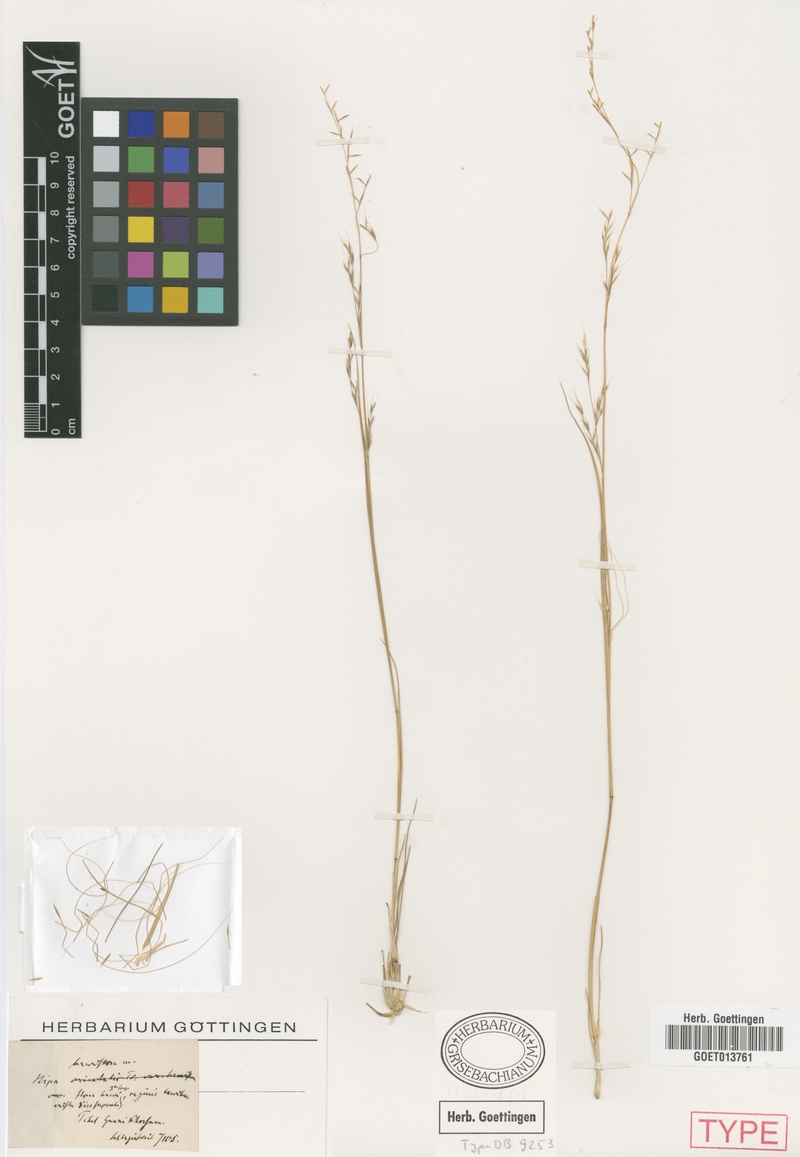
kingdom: Plantae
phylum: Tracheophyta
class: Liliopsida
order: Poales
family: Poaceae
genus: Stipa
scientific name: Stipa breviflora
